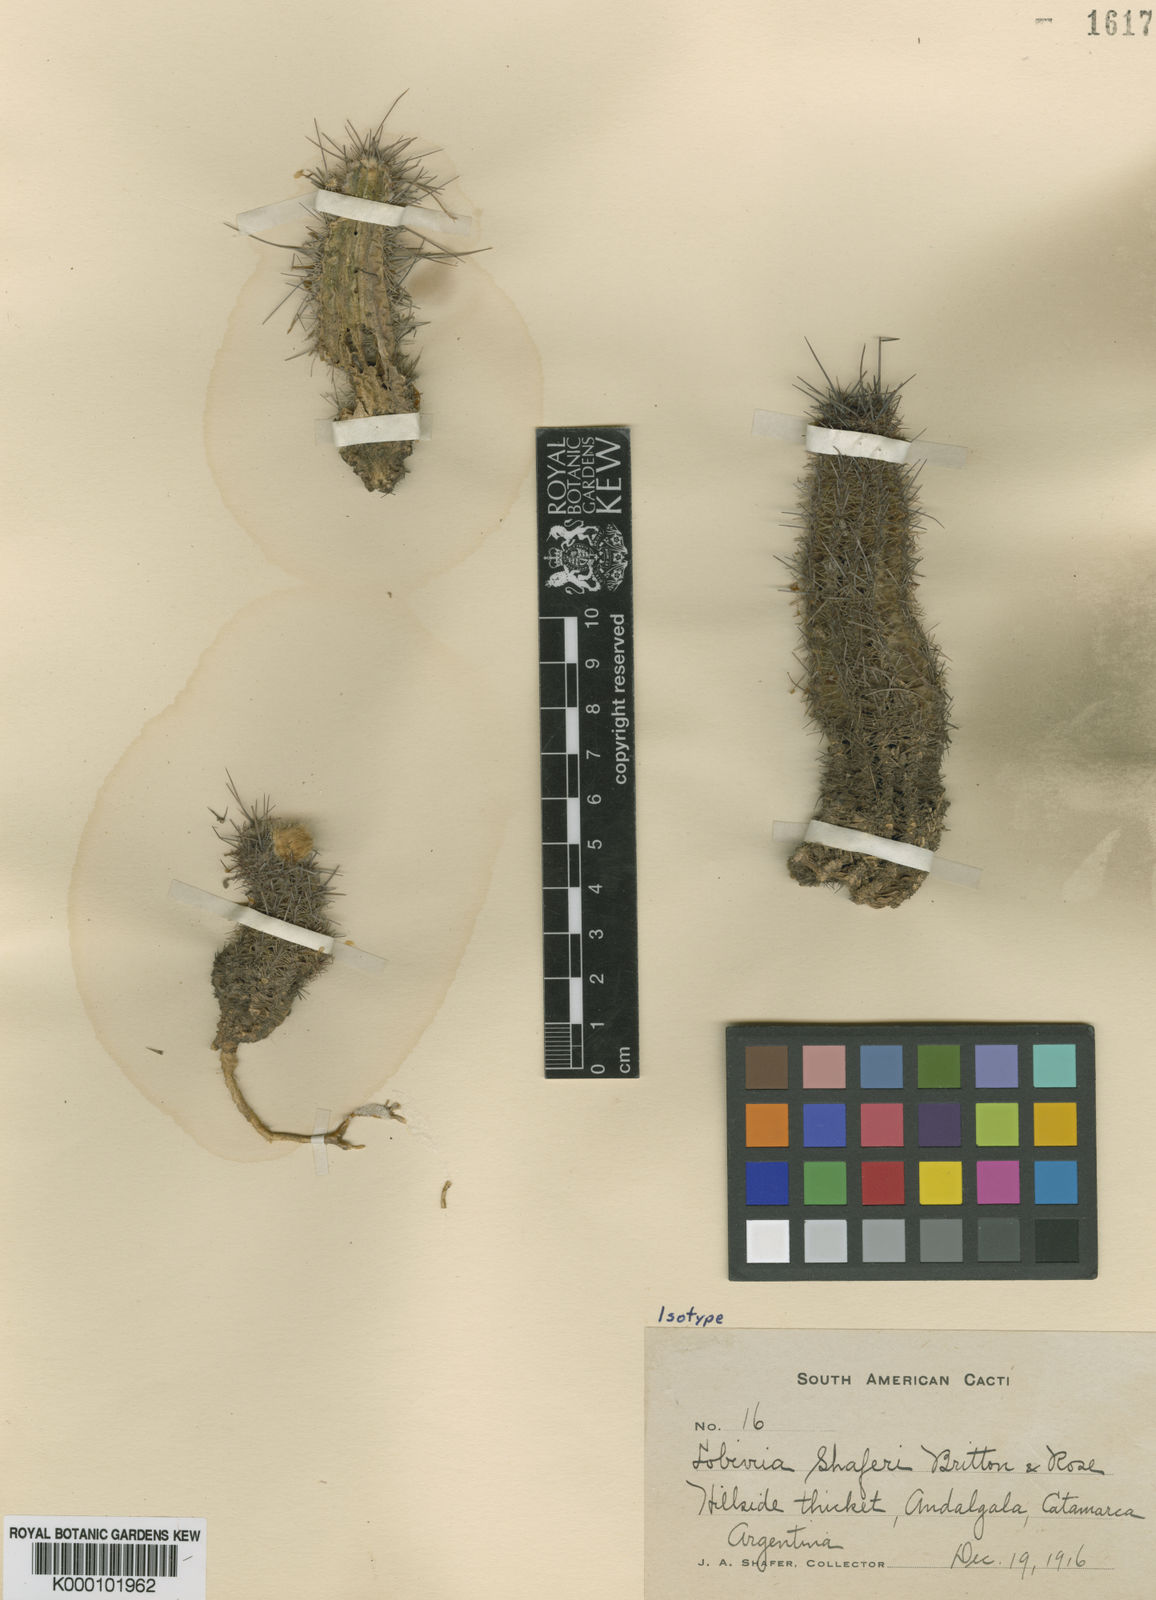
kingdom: Plantae
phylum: Tracheophyta
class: Magnoliopsida
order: Caryophyllales
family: Cactaceae
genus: Echinopsis
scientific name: Echinopsis aurea
